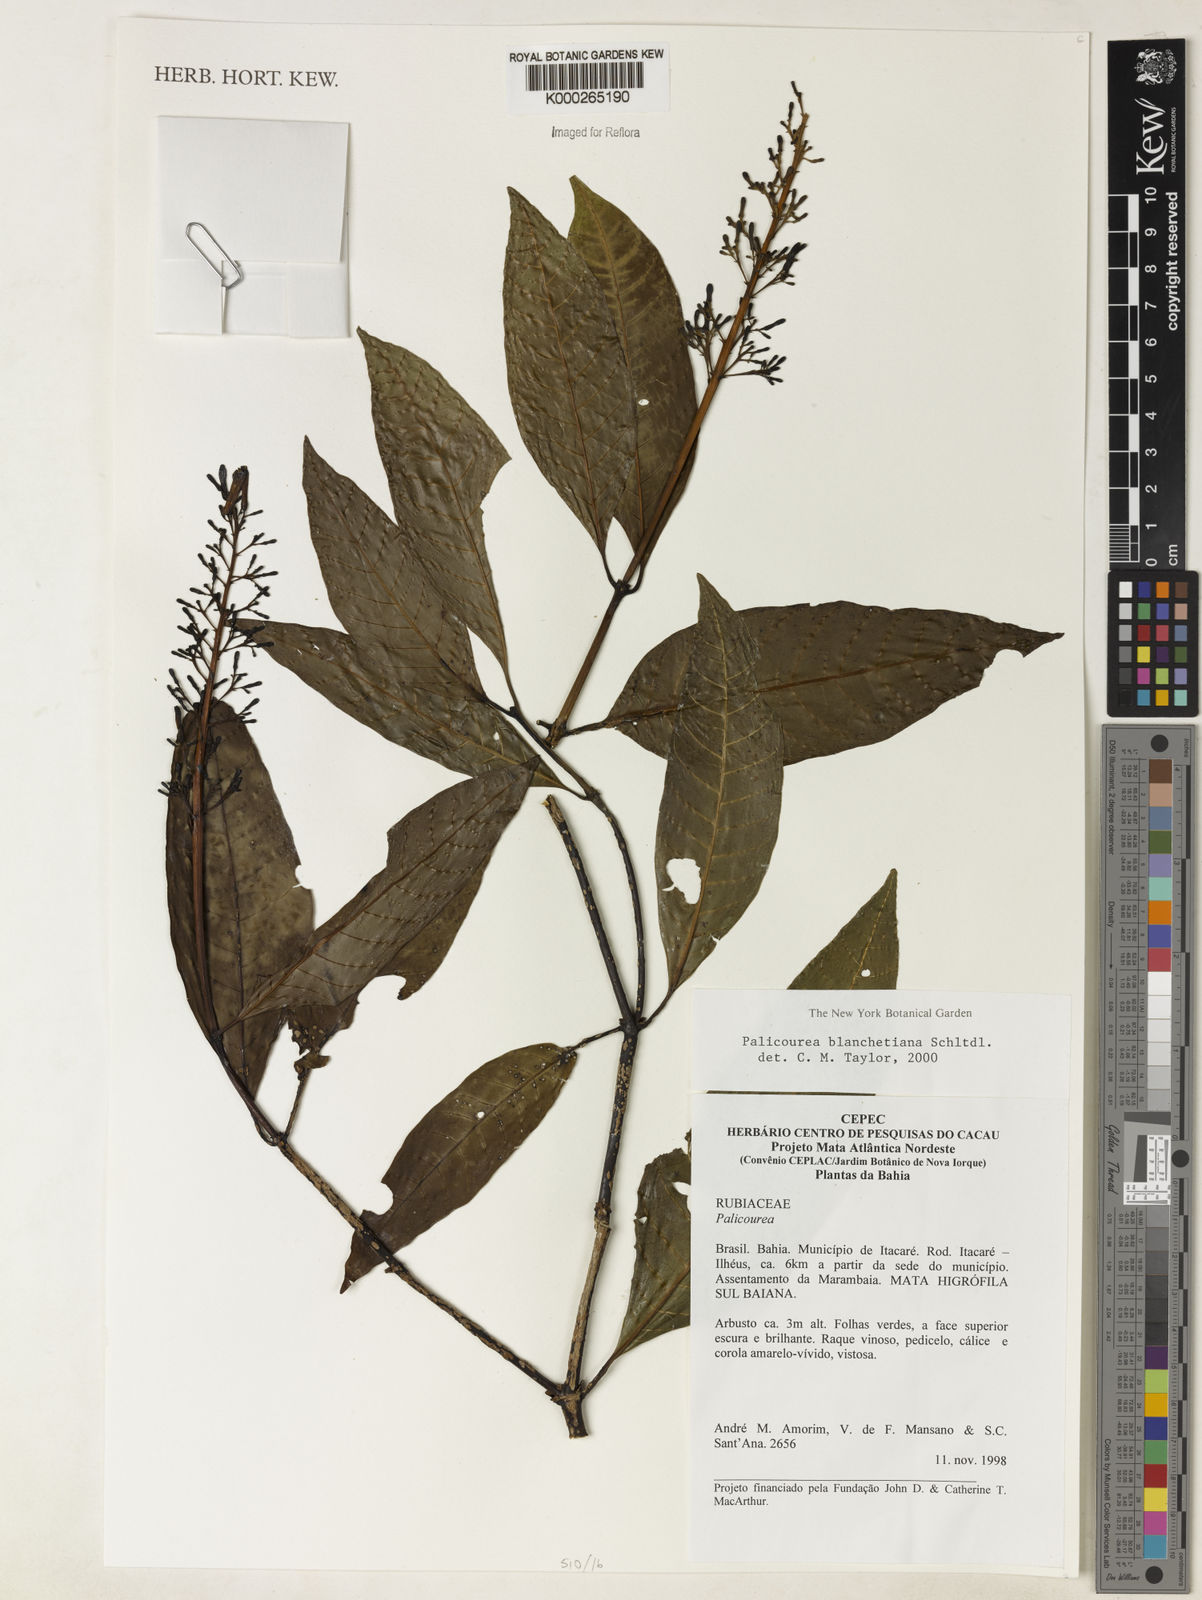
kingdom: Plantae
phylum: Tracheophyta
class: Magnoliopsida
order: Gentianales
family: Rubiaceae
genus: Palicourea
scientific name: Palicourea blanchetiana
